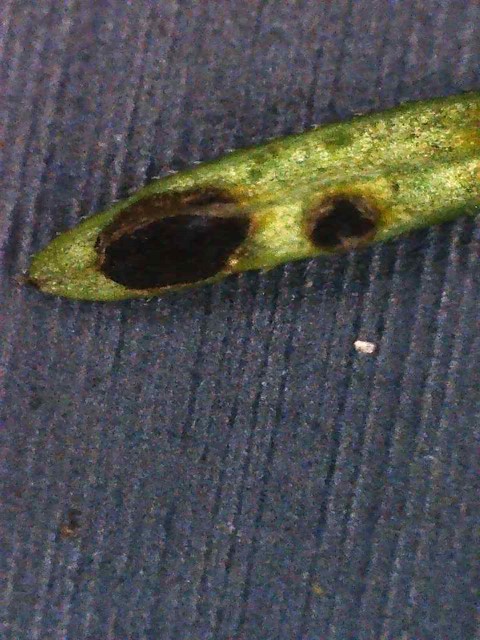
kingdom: Fungi
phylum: Basidiomycota
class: Pucciniomycetes
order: Pucciniales
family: Pucciniaceae
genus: Puccinia
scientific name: Puccinia punctata
